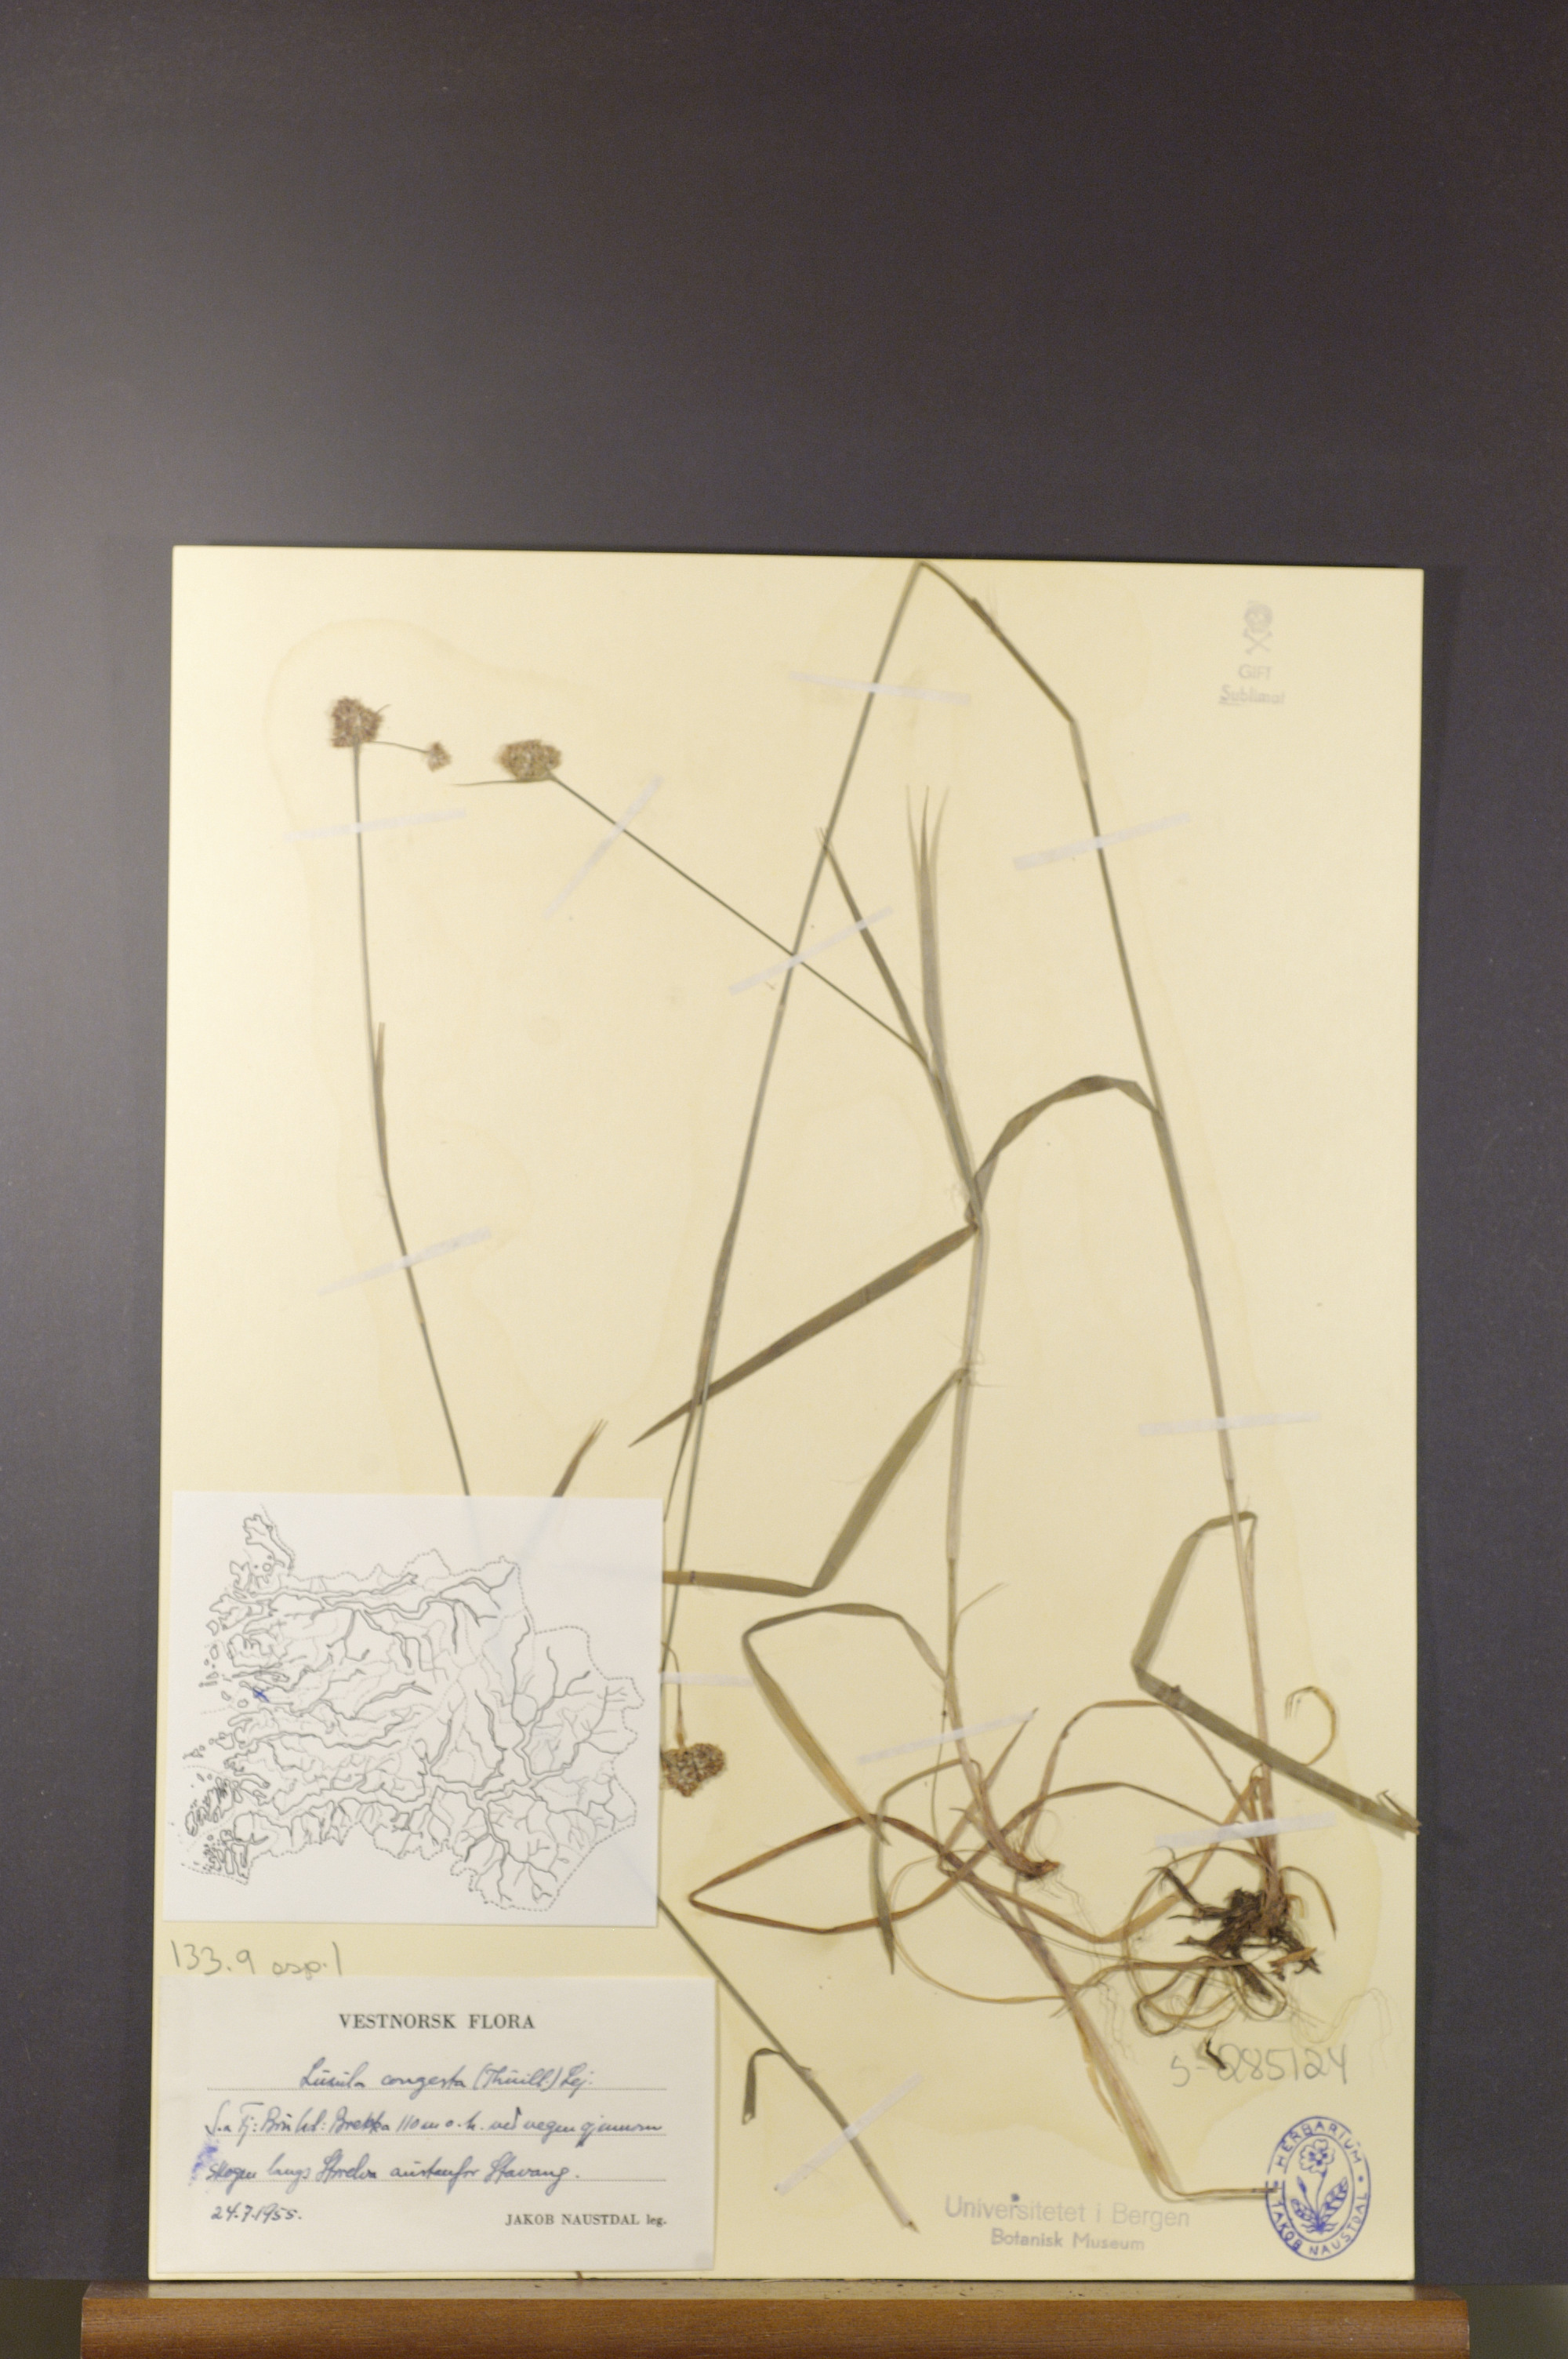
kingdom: Plantae
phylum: Tracheophyta
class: Liliopsida
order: Poales
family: Juncaceae
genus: Luzula
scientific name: Luzula congesta
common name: Heath woodrush
